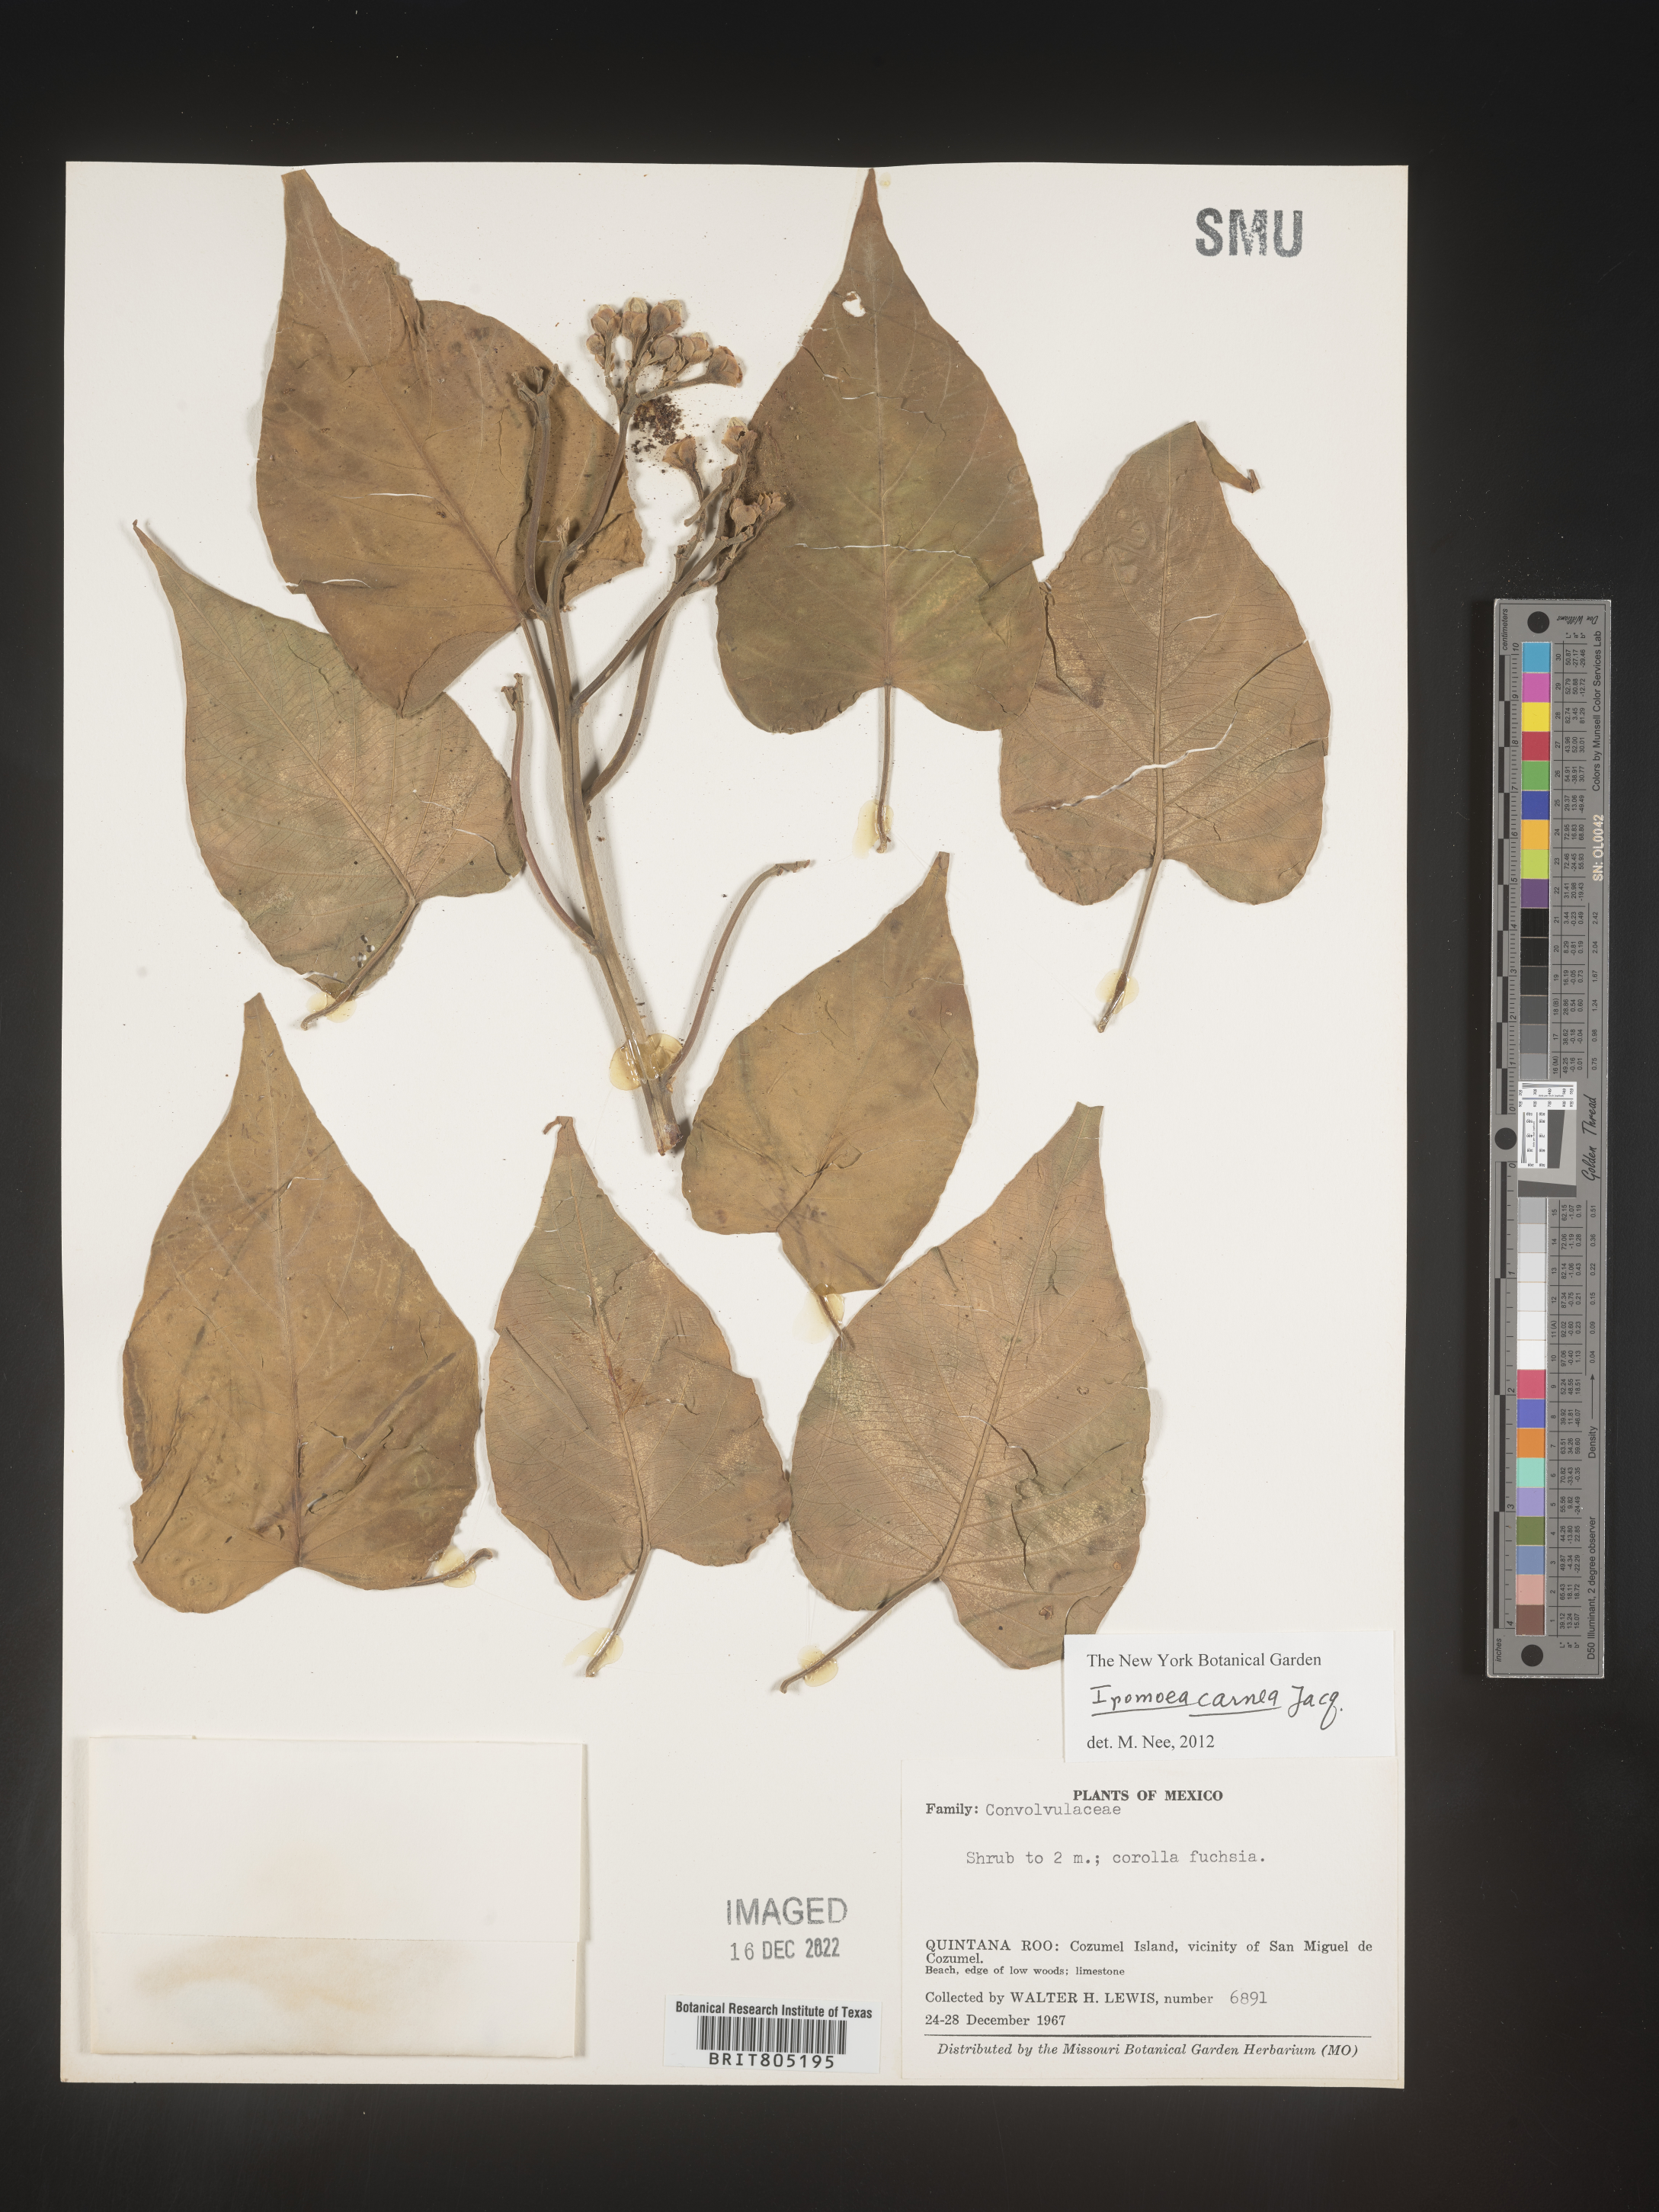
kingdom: Plantae
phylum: Tracheophyta
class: Magnoliopsida
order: Solanales
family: Convolvulaceae
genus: Ipomoea
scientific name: Ipomoea
